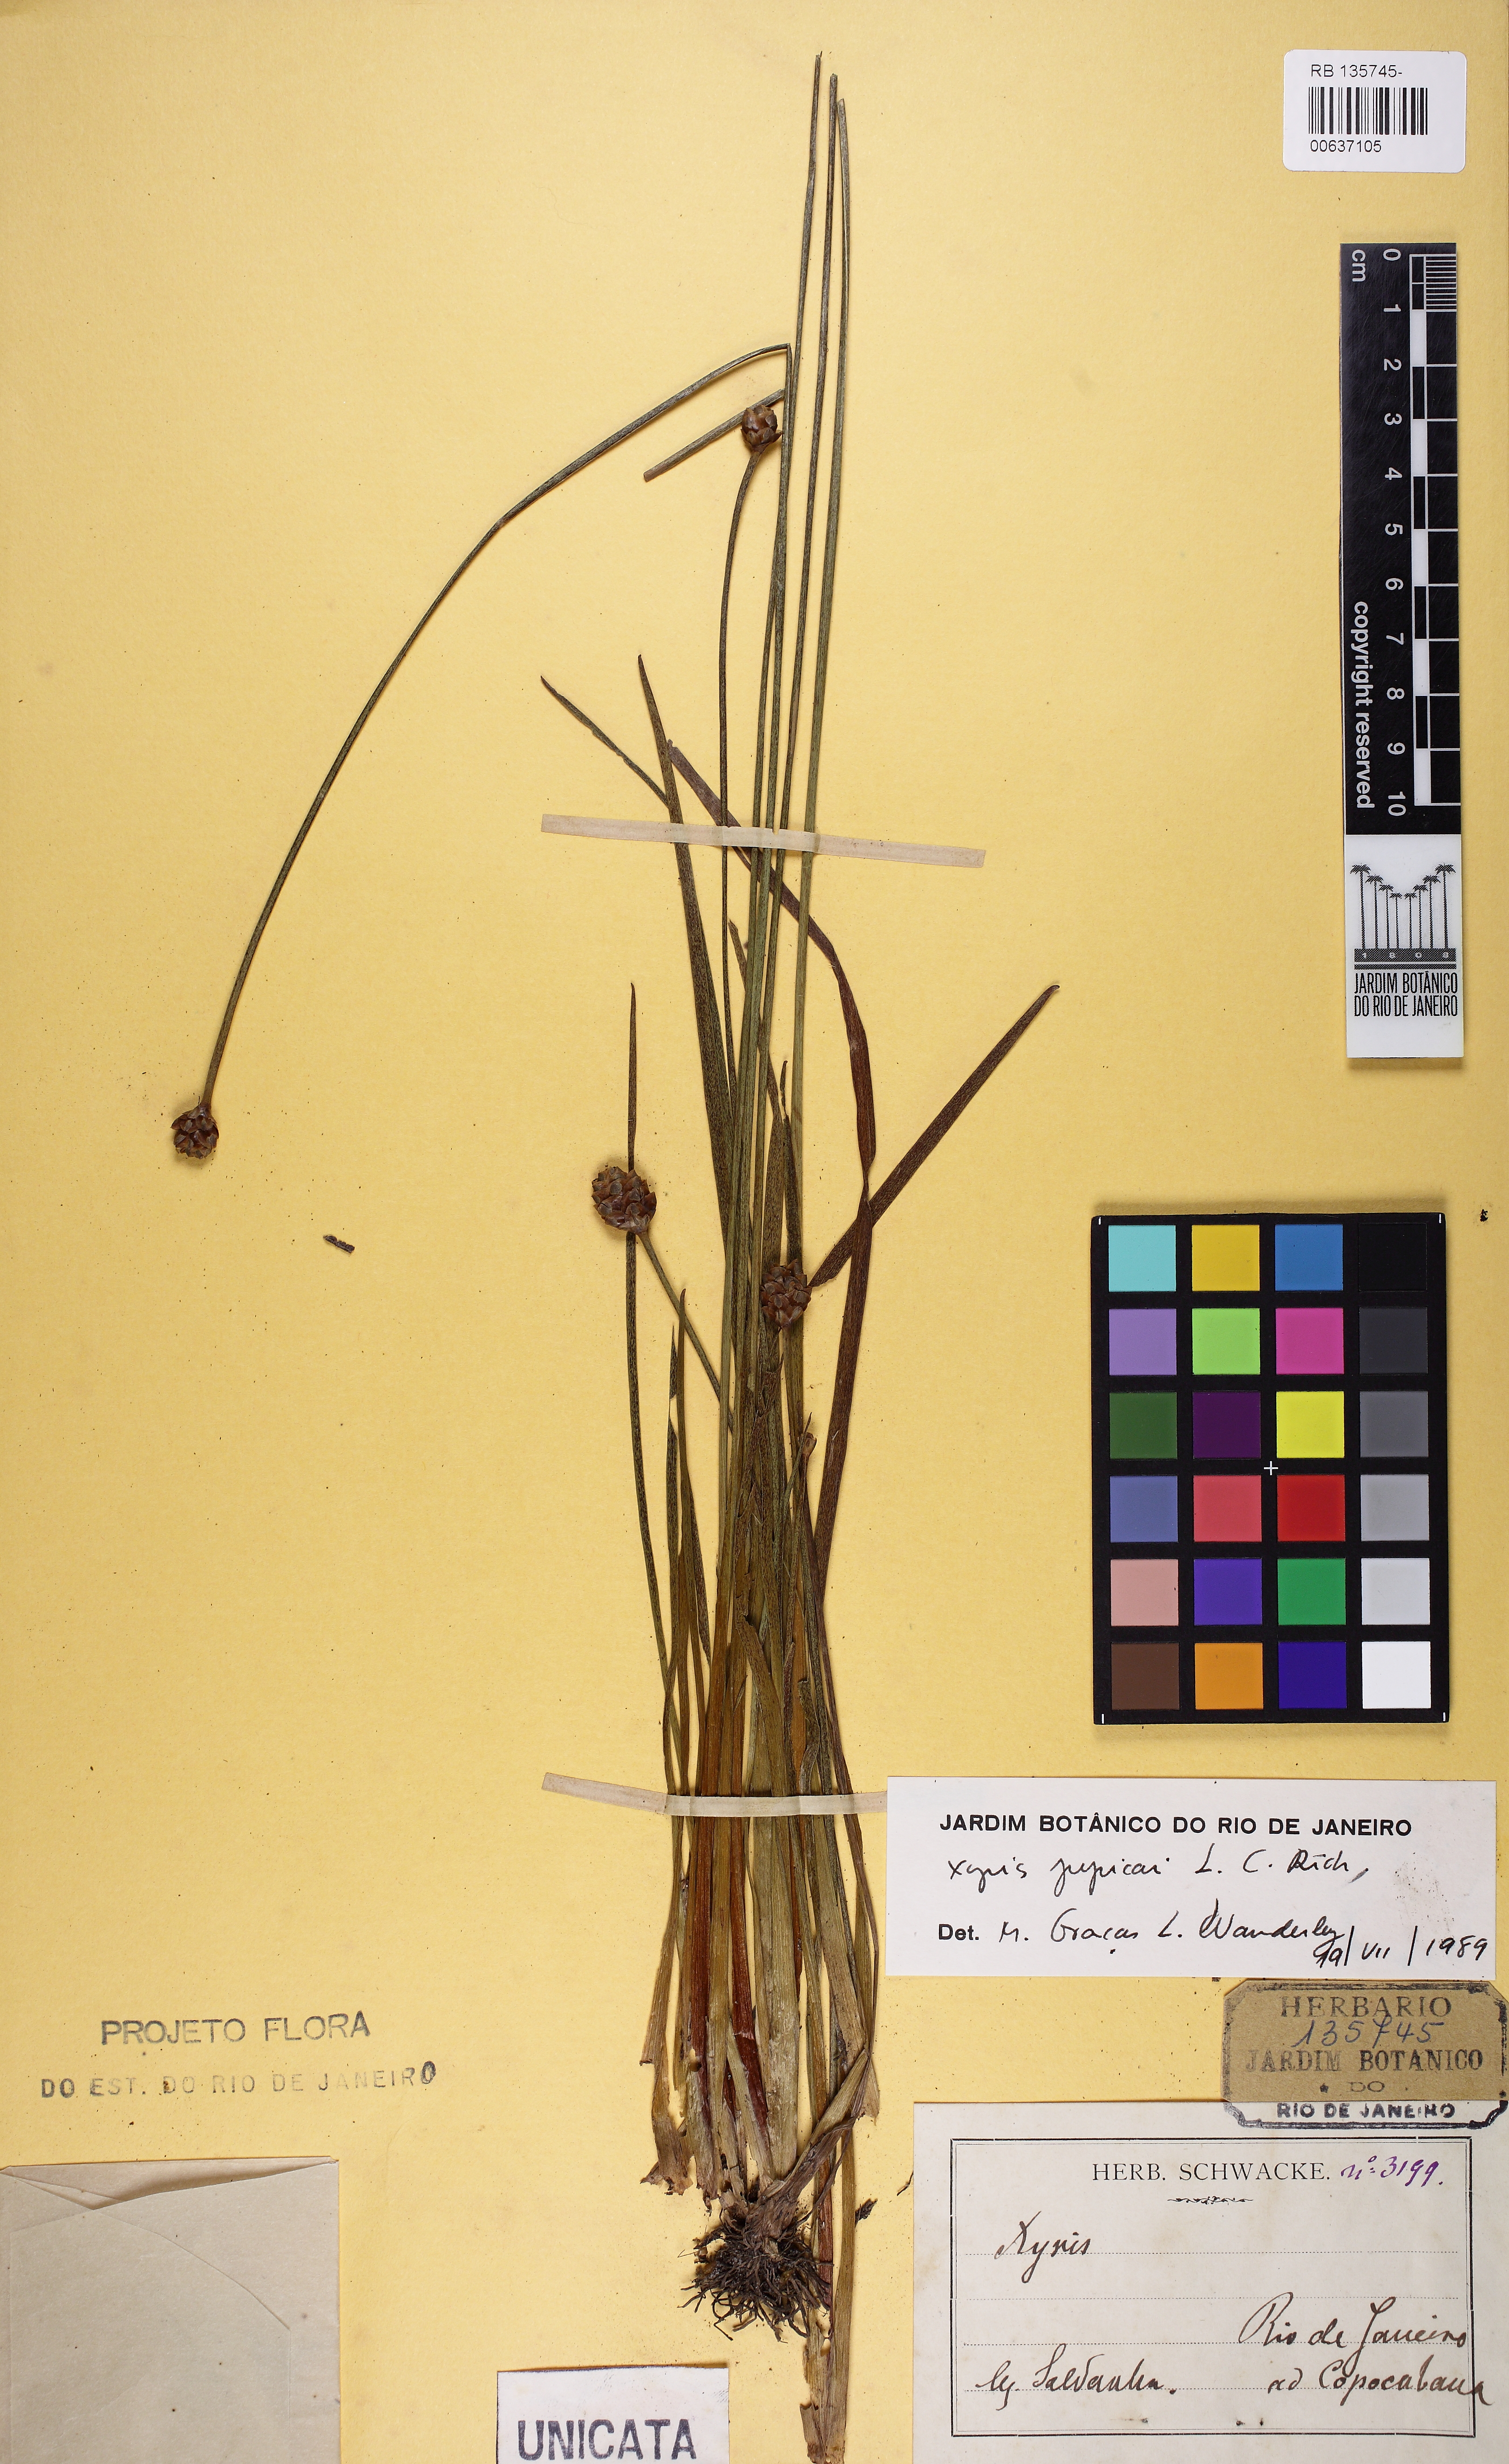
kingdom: Plantae
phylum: Tracheophyta
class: Liliopsida
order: Poales
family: Xyridaceae
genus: Xyris
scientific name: Xyris jupicai
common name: Richard's yelloweyed grass
